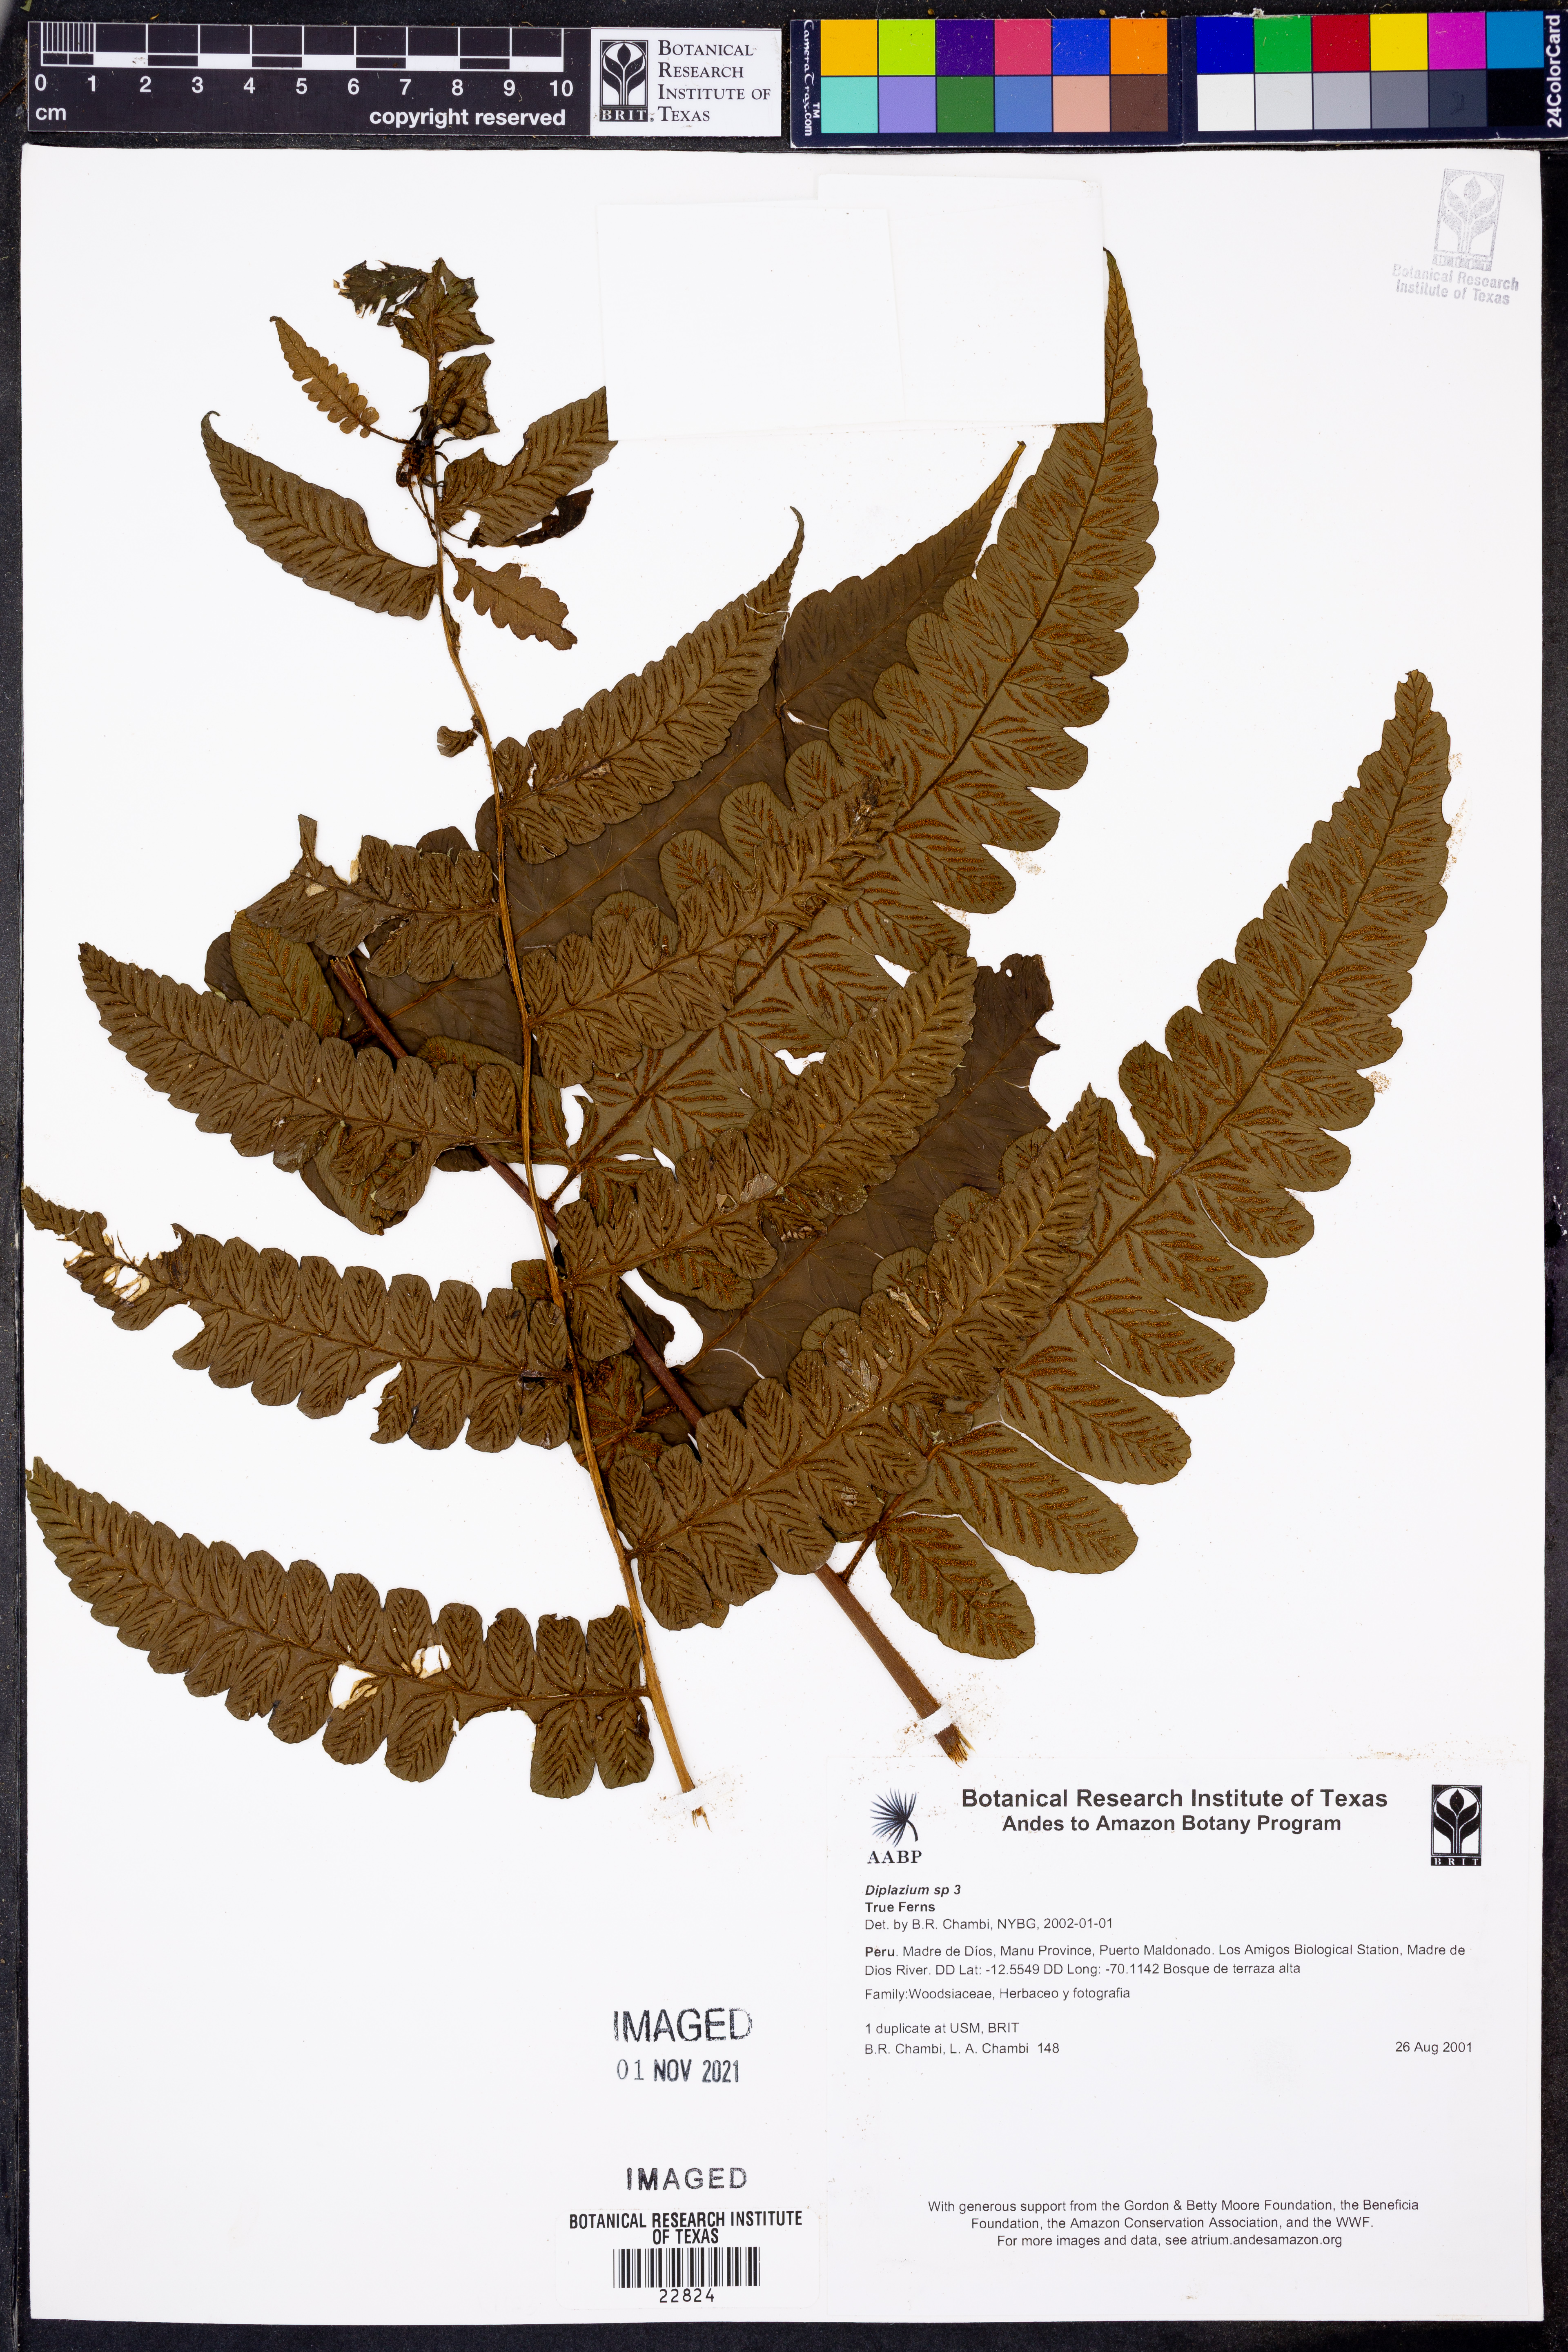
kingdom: Plantae
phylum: Tracheophyta
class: Polypodiopsida
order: Polypodiales
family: Athyriaceae
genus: Diplazium
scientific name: Diplazium
